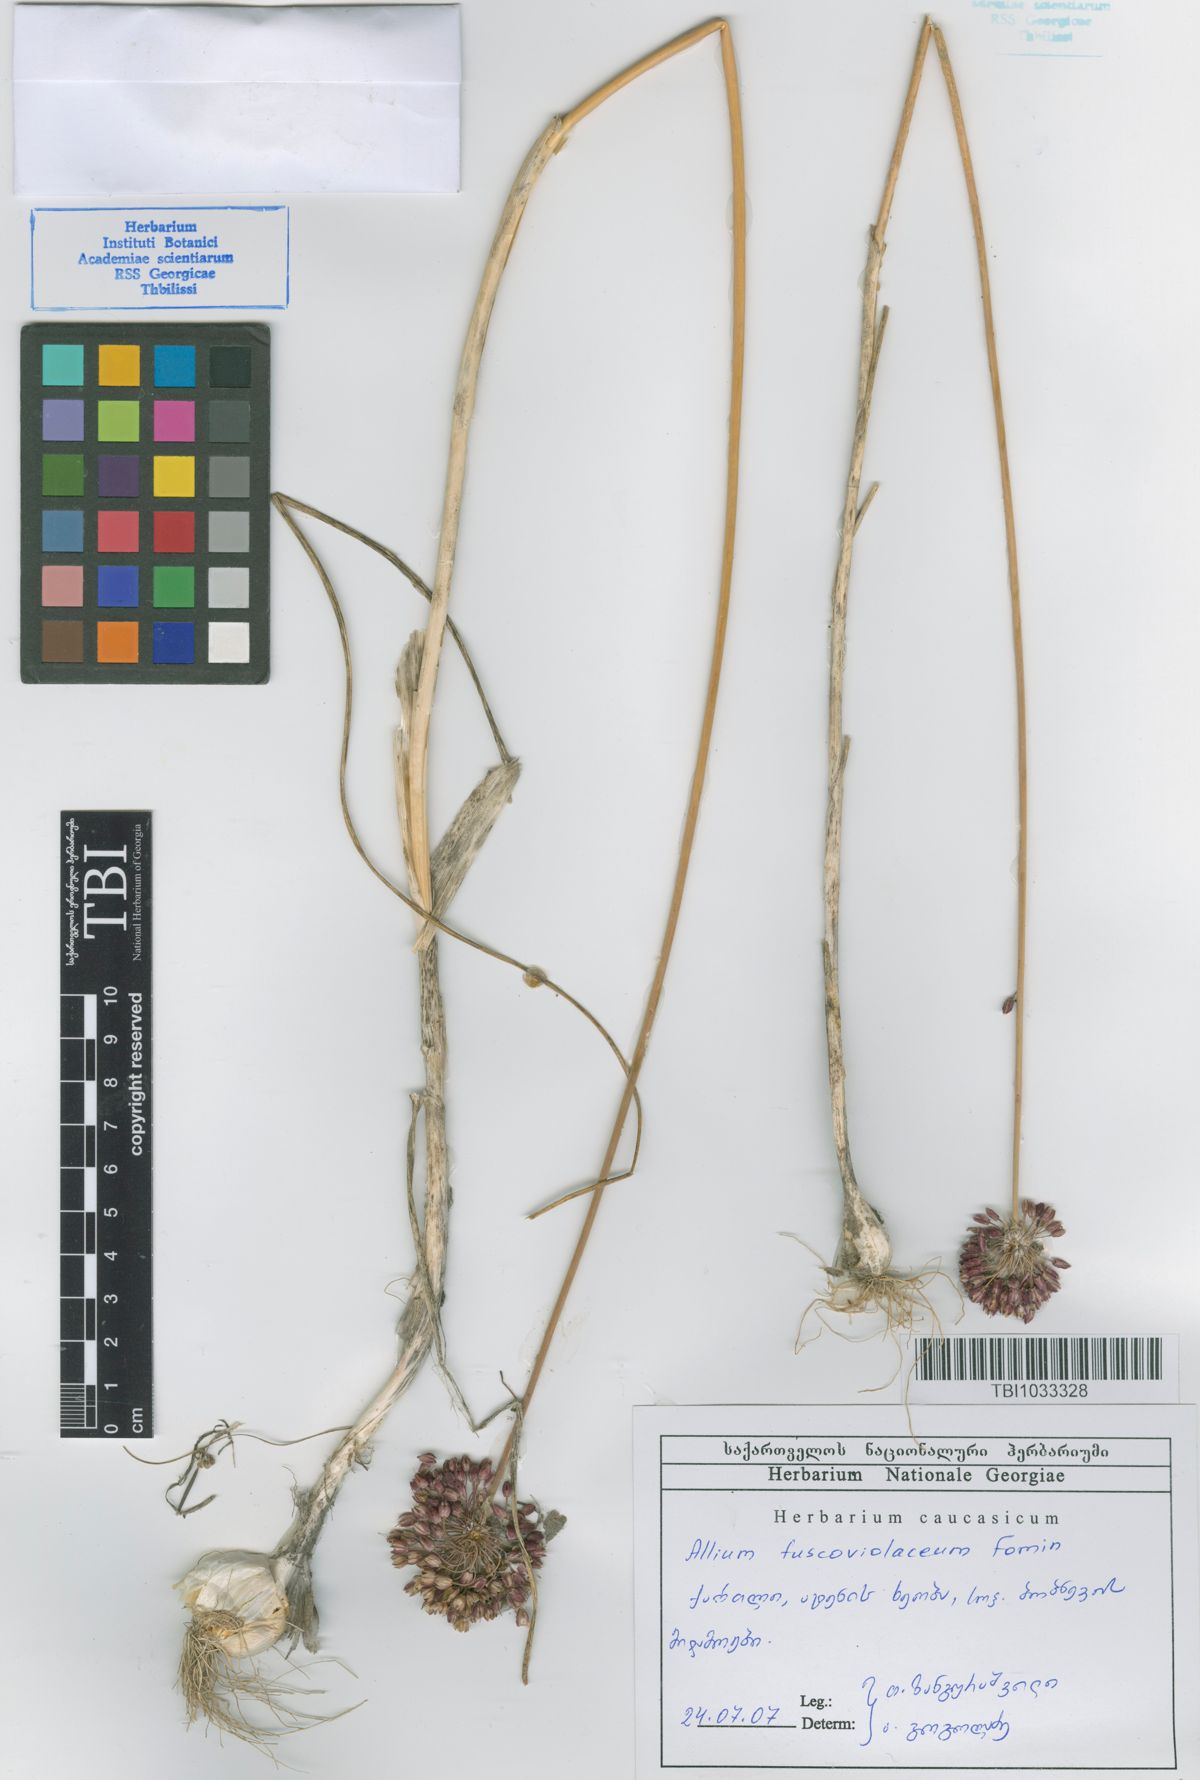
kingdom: Plantae
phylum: Tracheophyta
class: Liliopsida
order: Asparagales
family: Amaryllidaceae
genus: Allium
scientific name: Allium fuscoviolaceum
